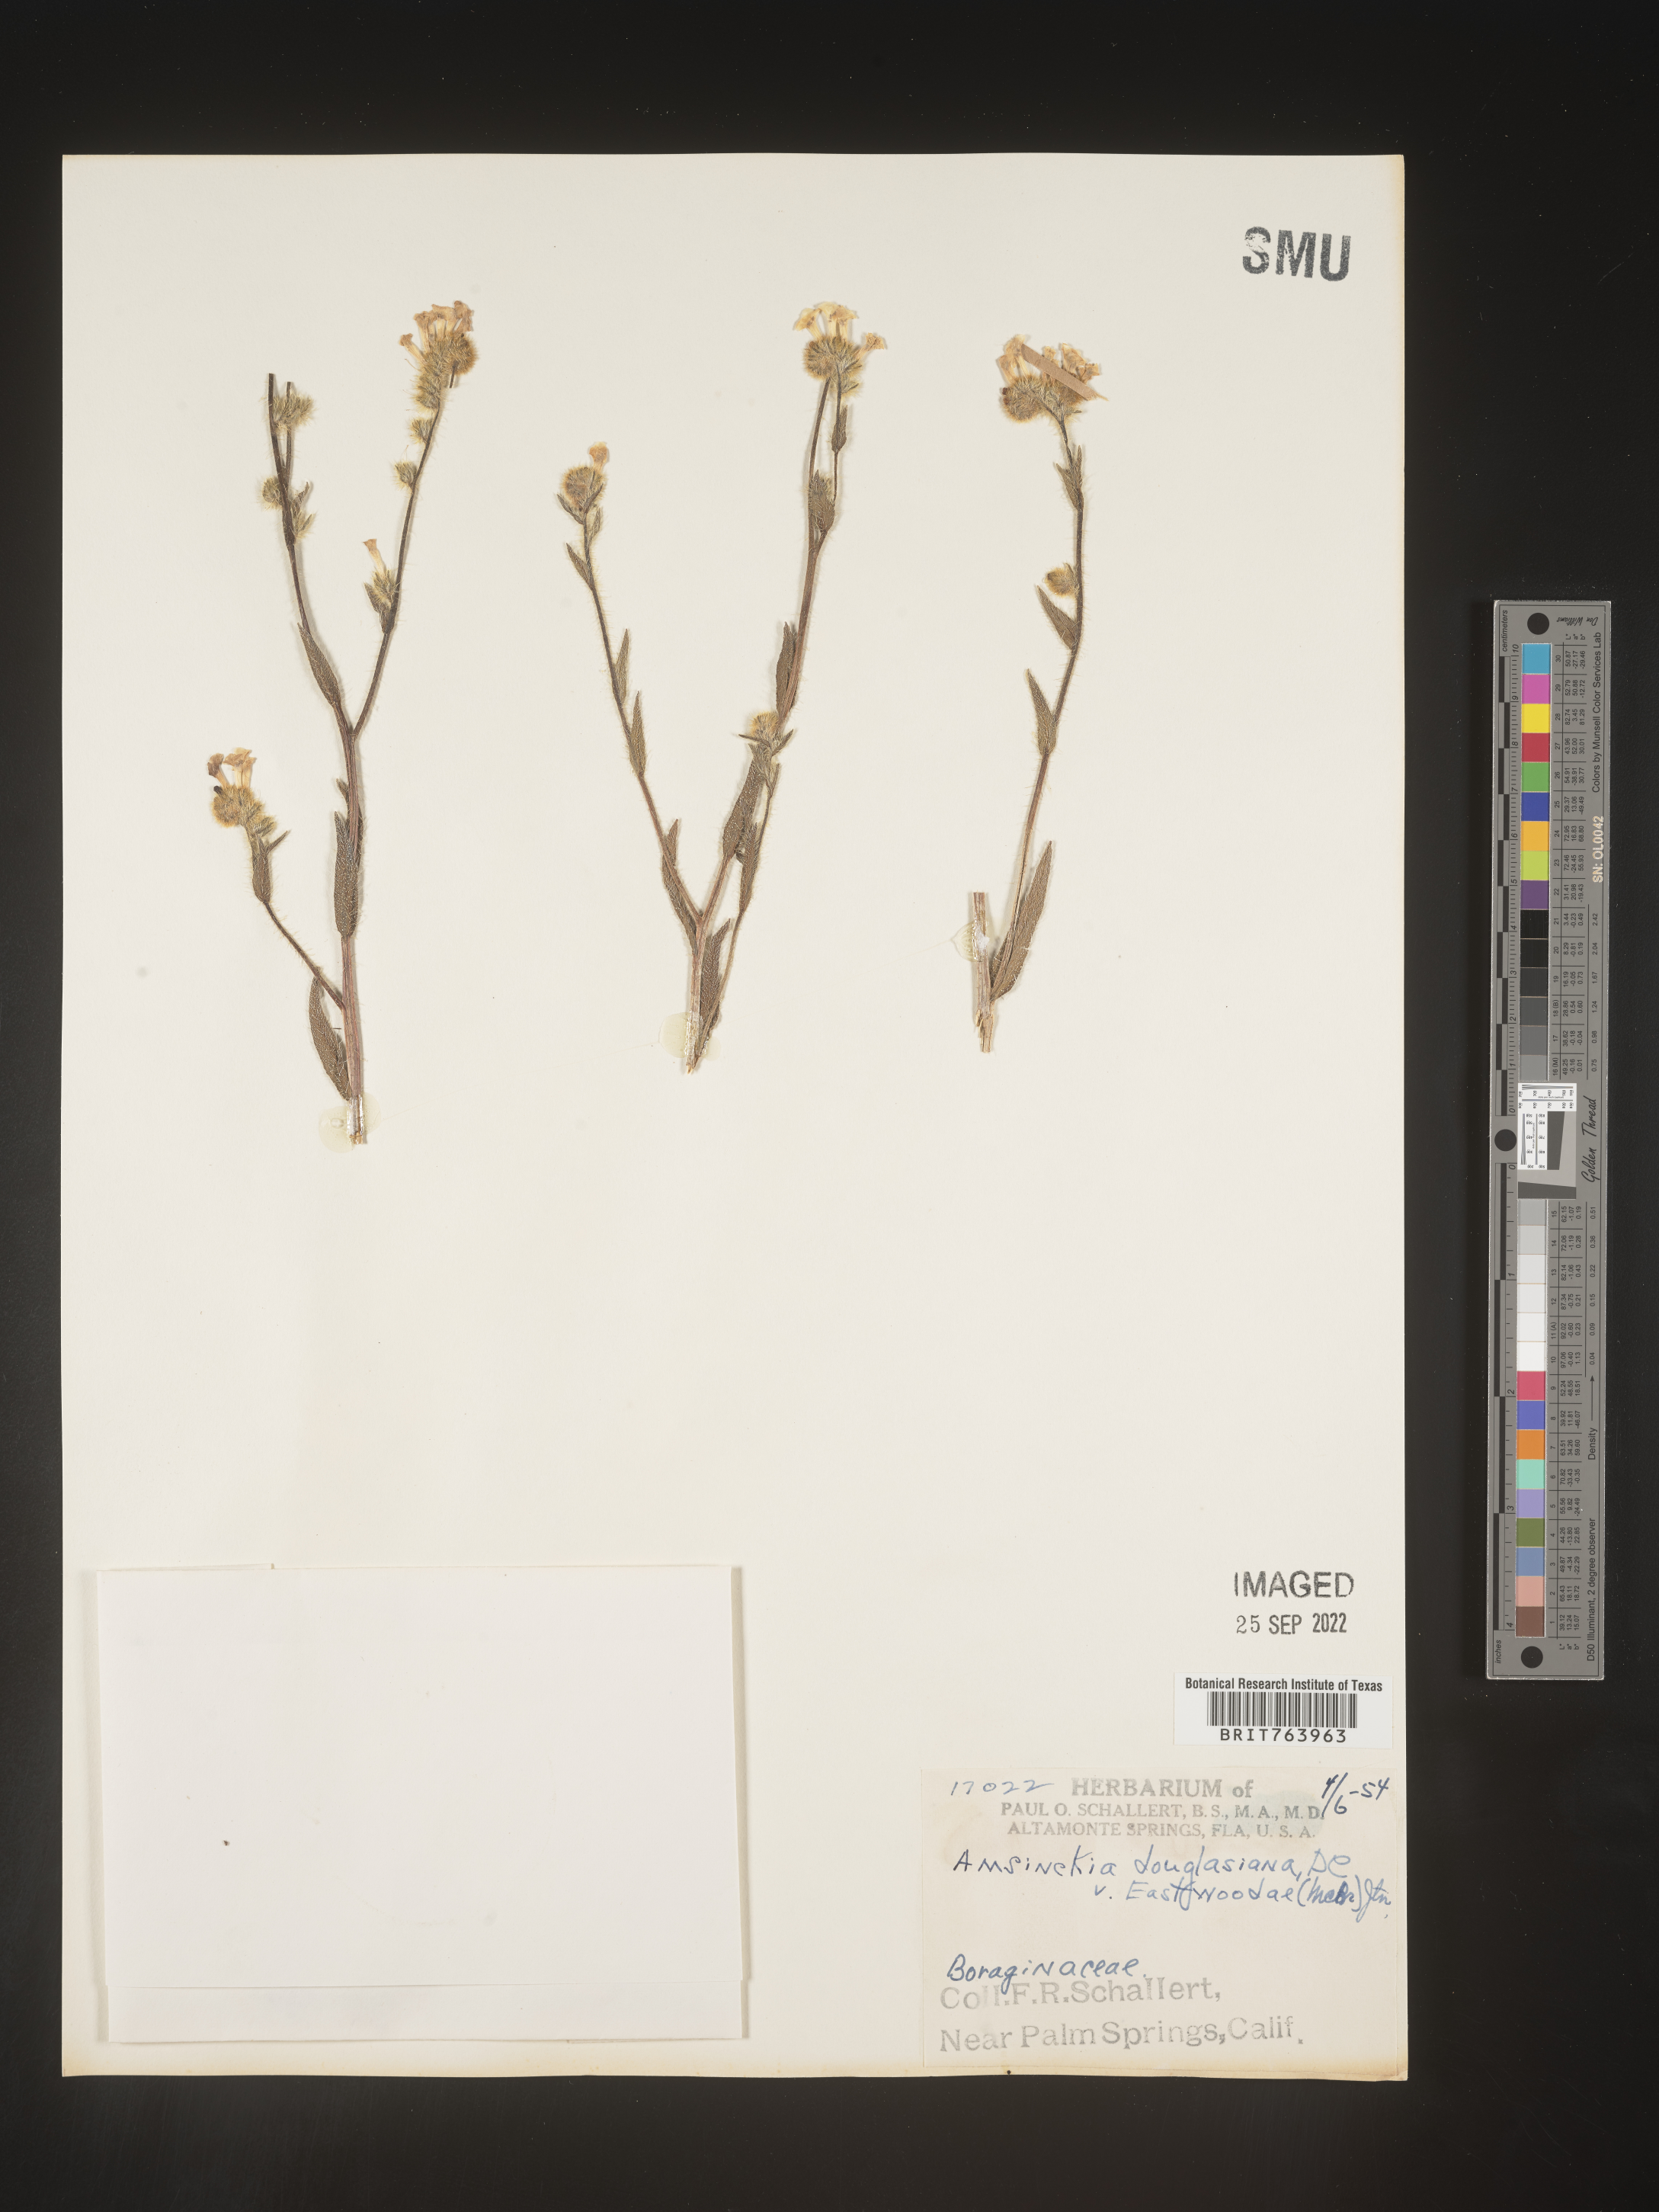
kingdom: Plantae
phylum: Tracheophyta
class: Magnoliopsida
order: Boraginales
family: Boraginaceae
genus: Amsinckia
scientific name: Amsinckia
